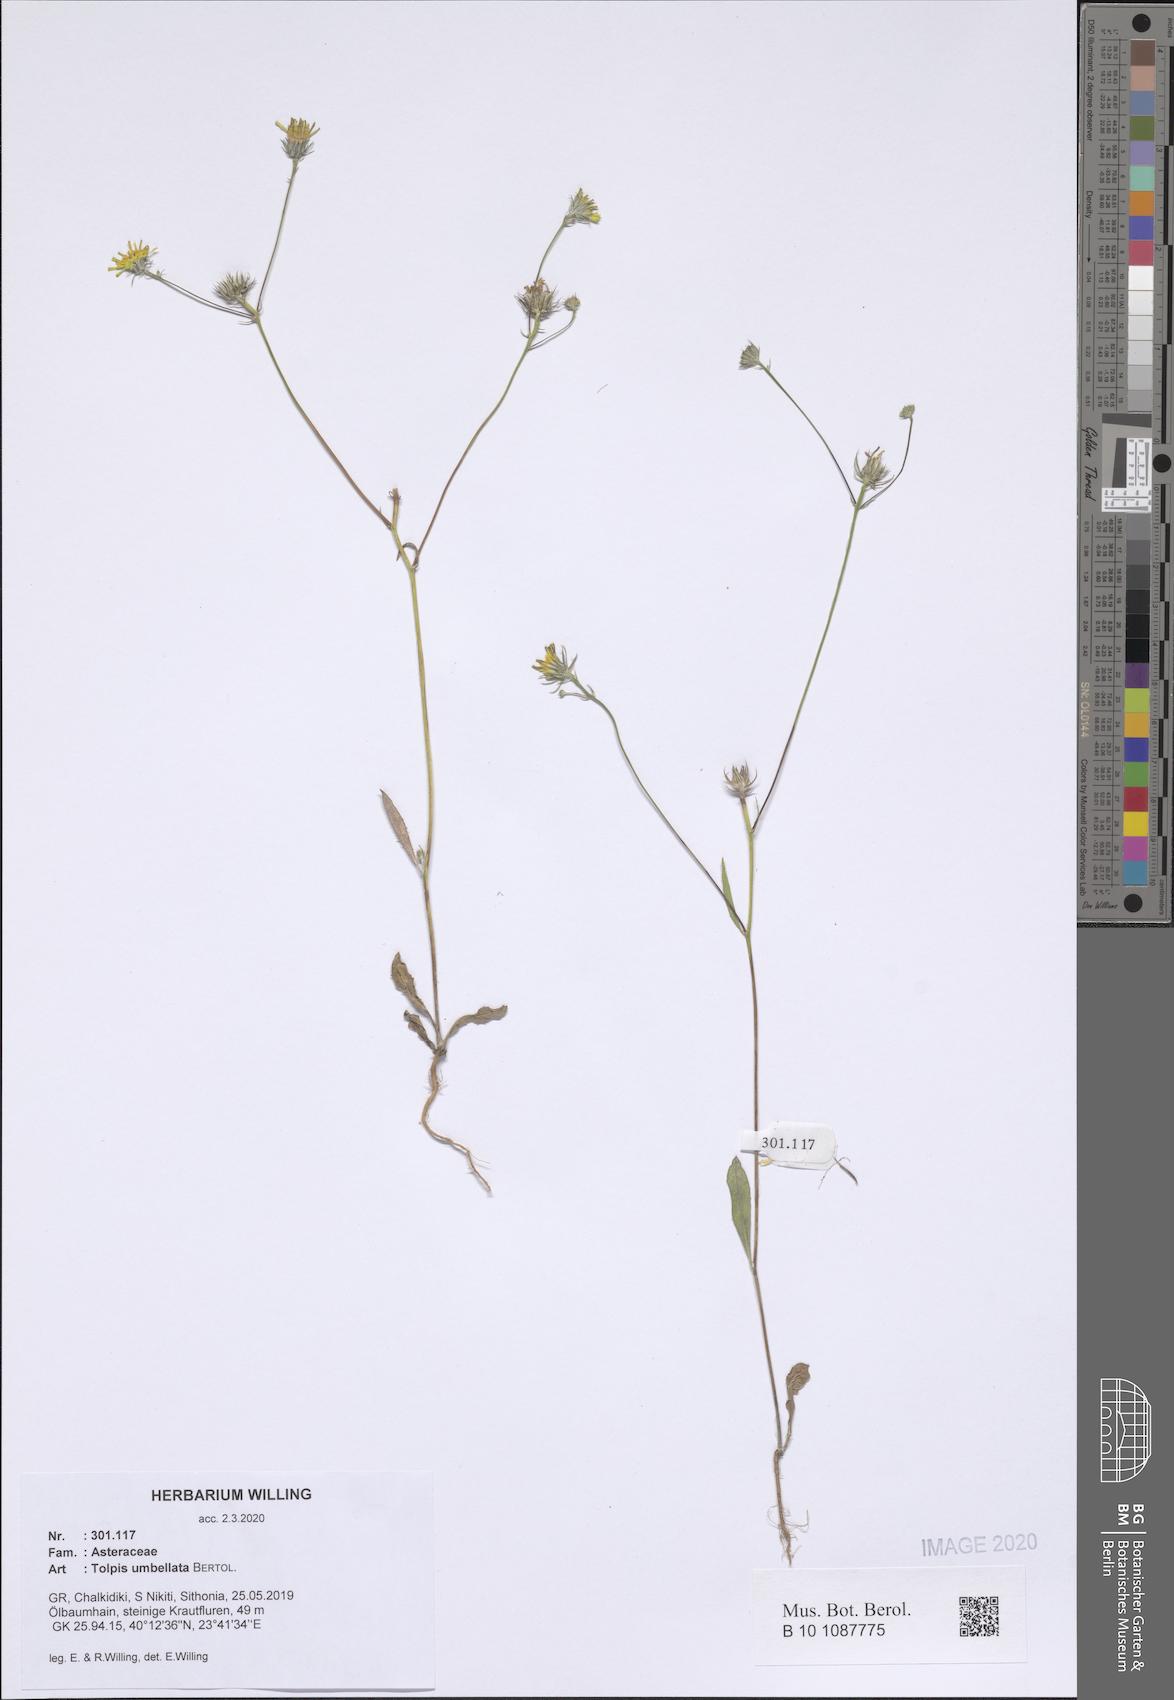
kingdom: Plantae
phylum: Tracheophyta
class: Magnoliopsida
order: Asterales
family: Asteraceae
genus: Tolpis
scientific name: Tolpis umbellata
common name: Yellow hawkweed
